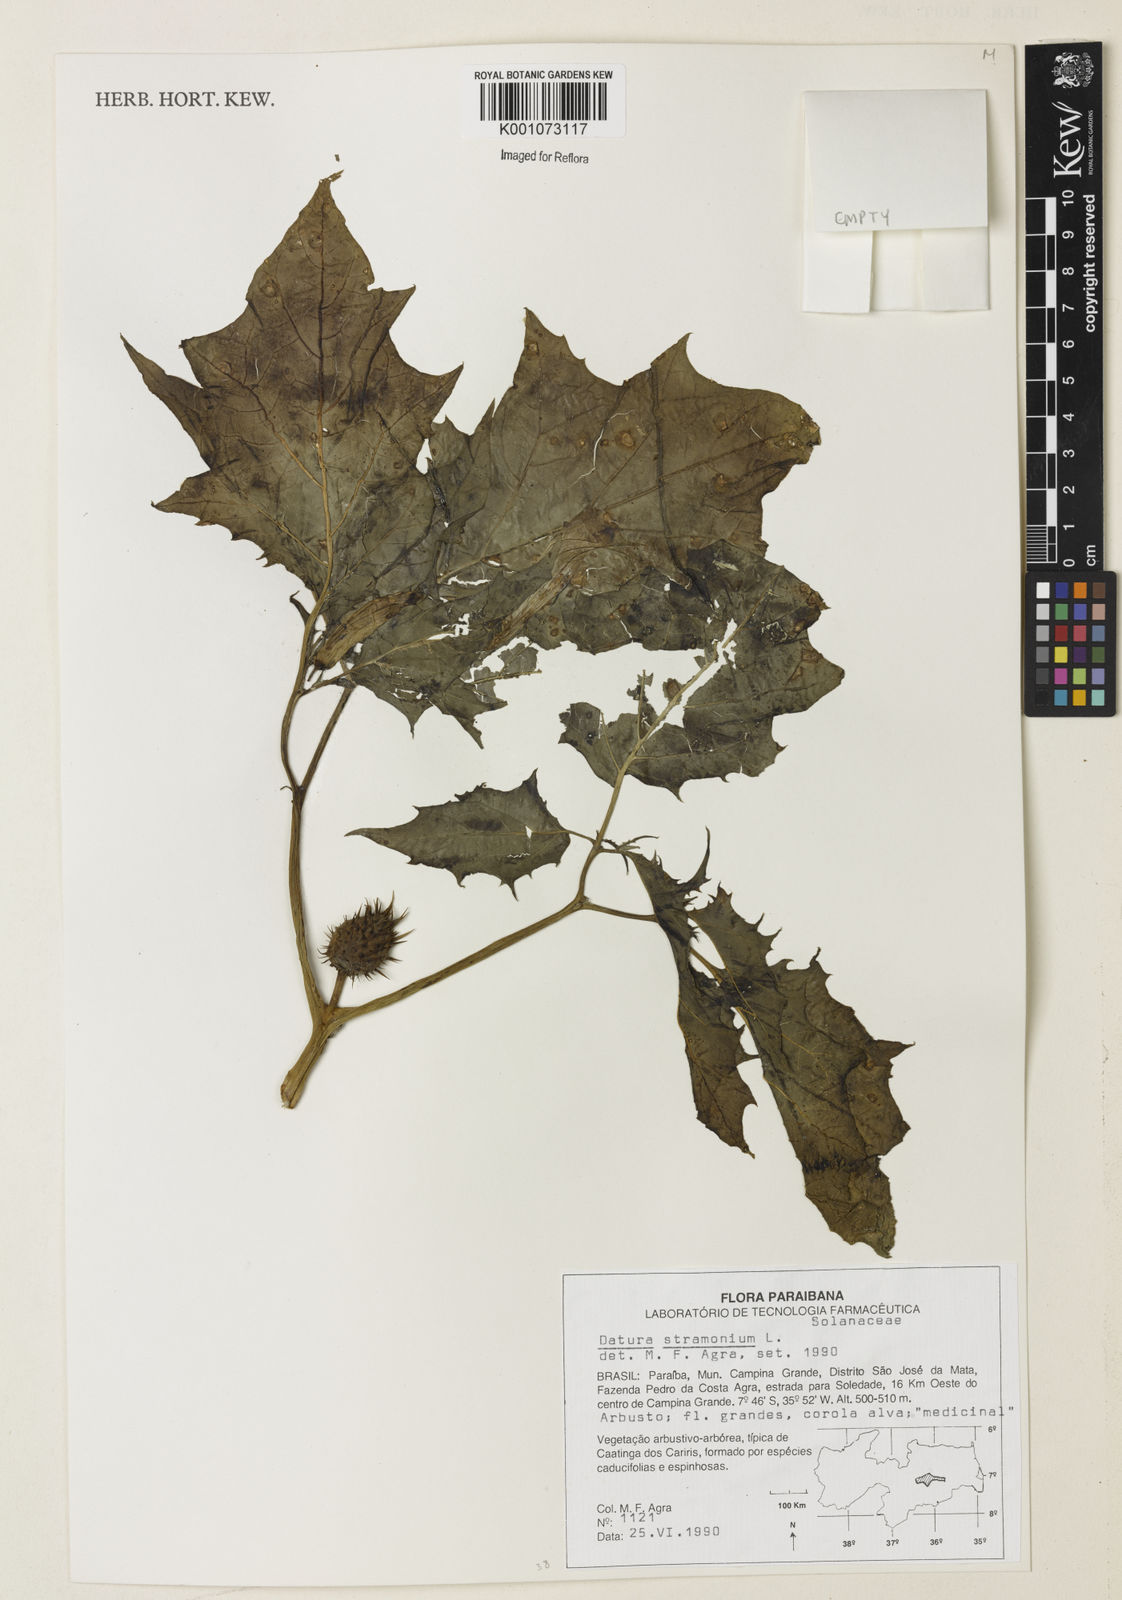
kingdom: Plantae
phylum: Tracheophyta
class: Magnoliopsida
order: Solanales
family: Solanaceae
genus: Datura
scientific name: Datura stramonium
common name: Thorn-apple
